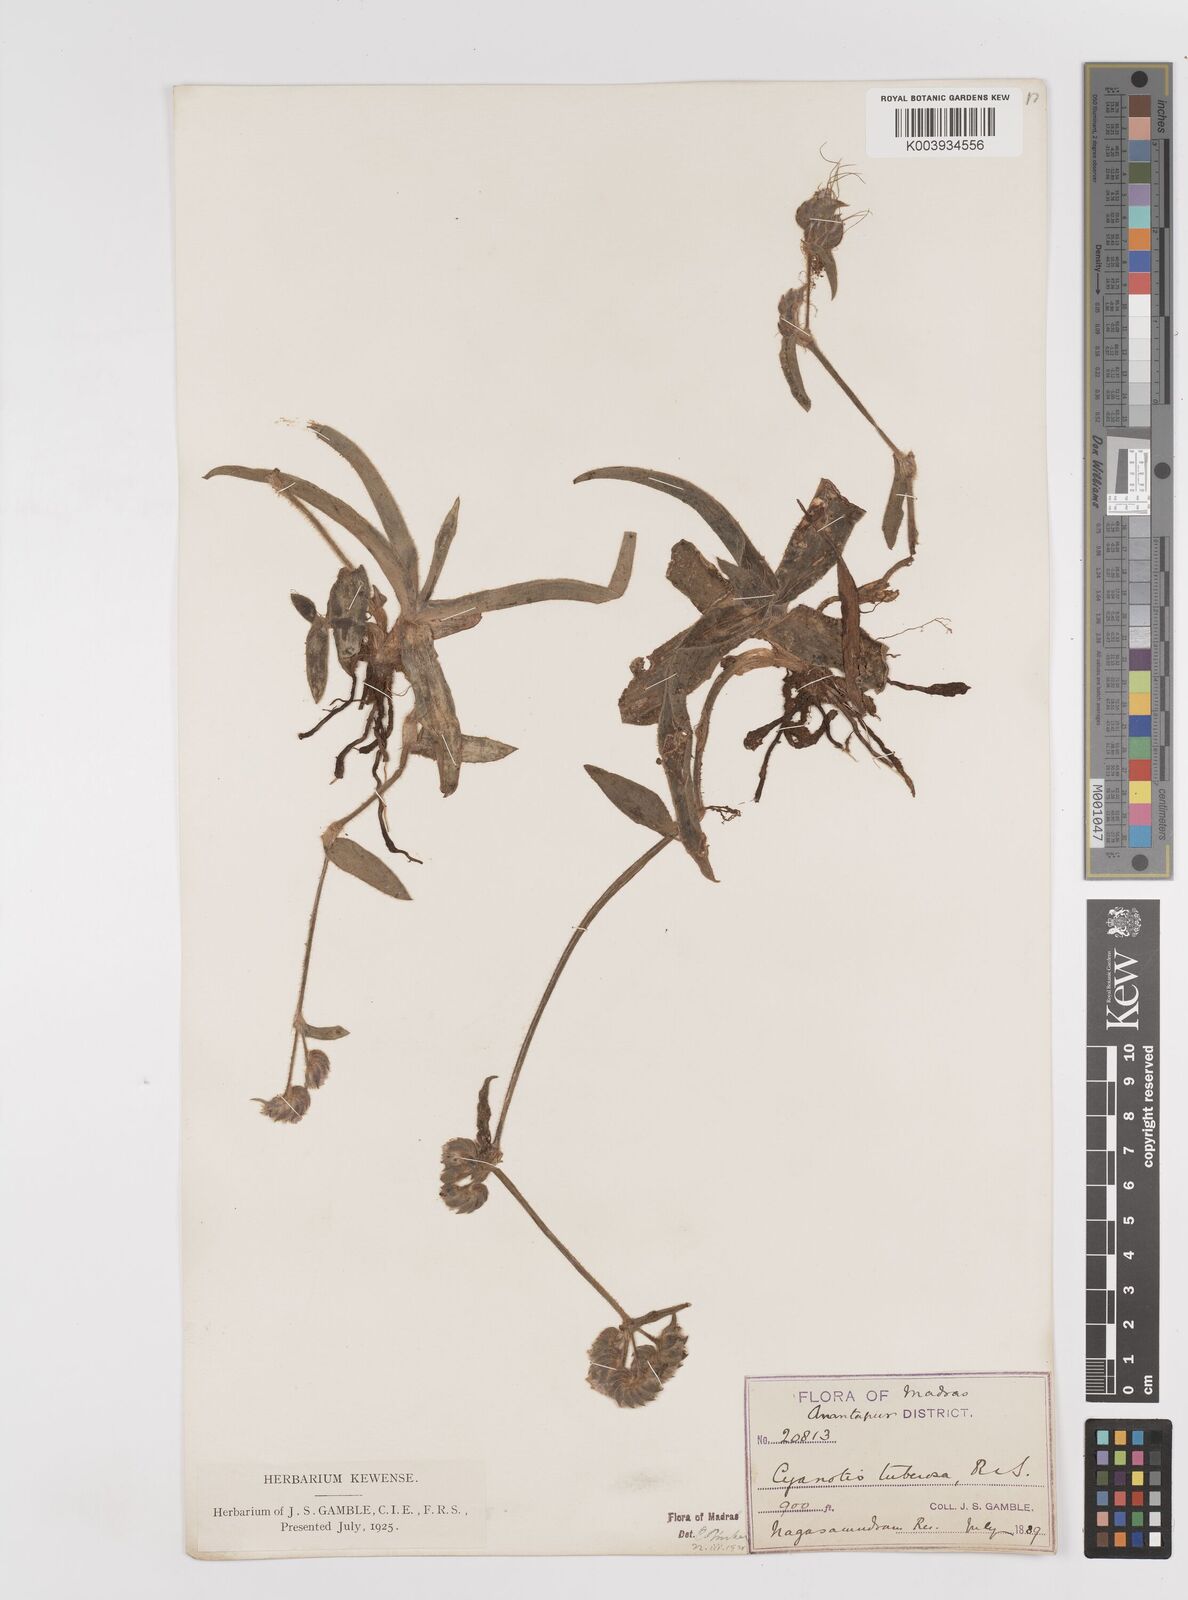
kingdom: Plantae
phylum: Tracheophyta
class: Liliopsida
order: Commelinales
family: Commelinaceae
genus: Cyanotis
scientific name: Cyanotis tuberosa
